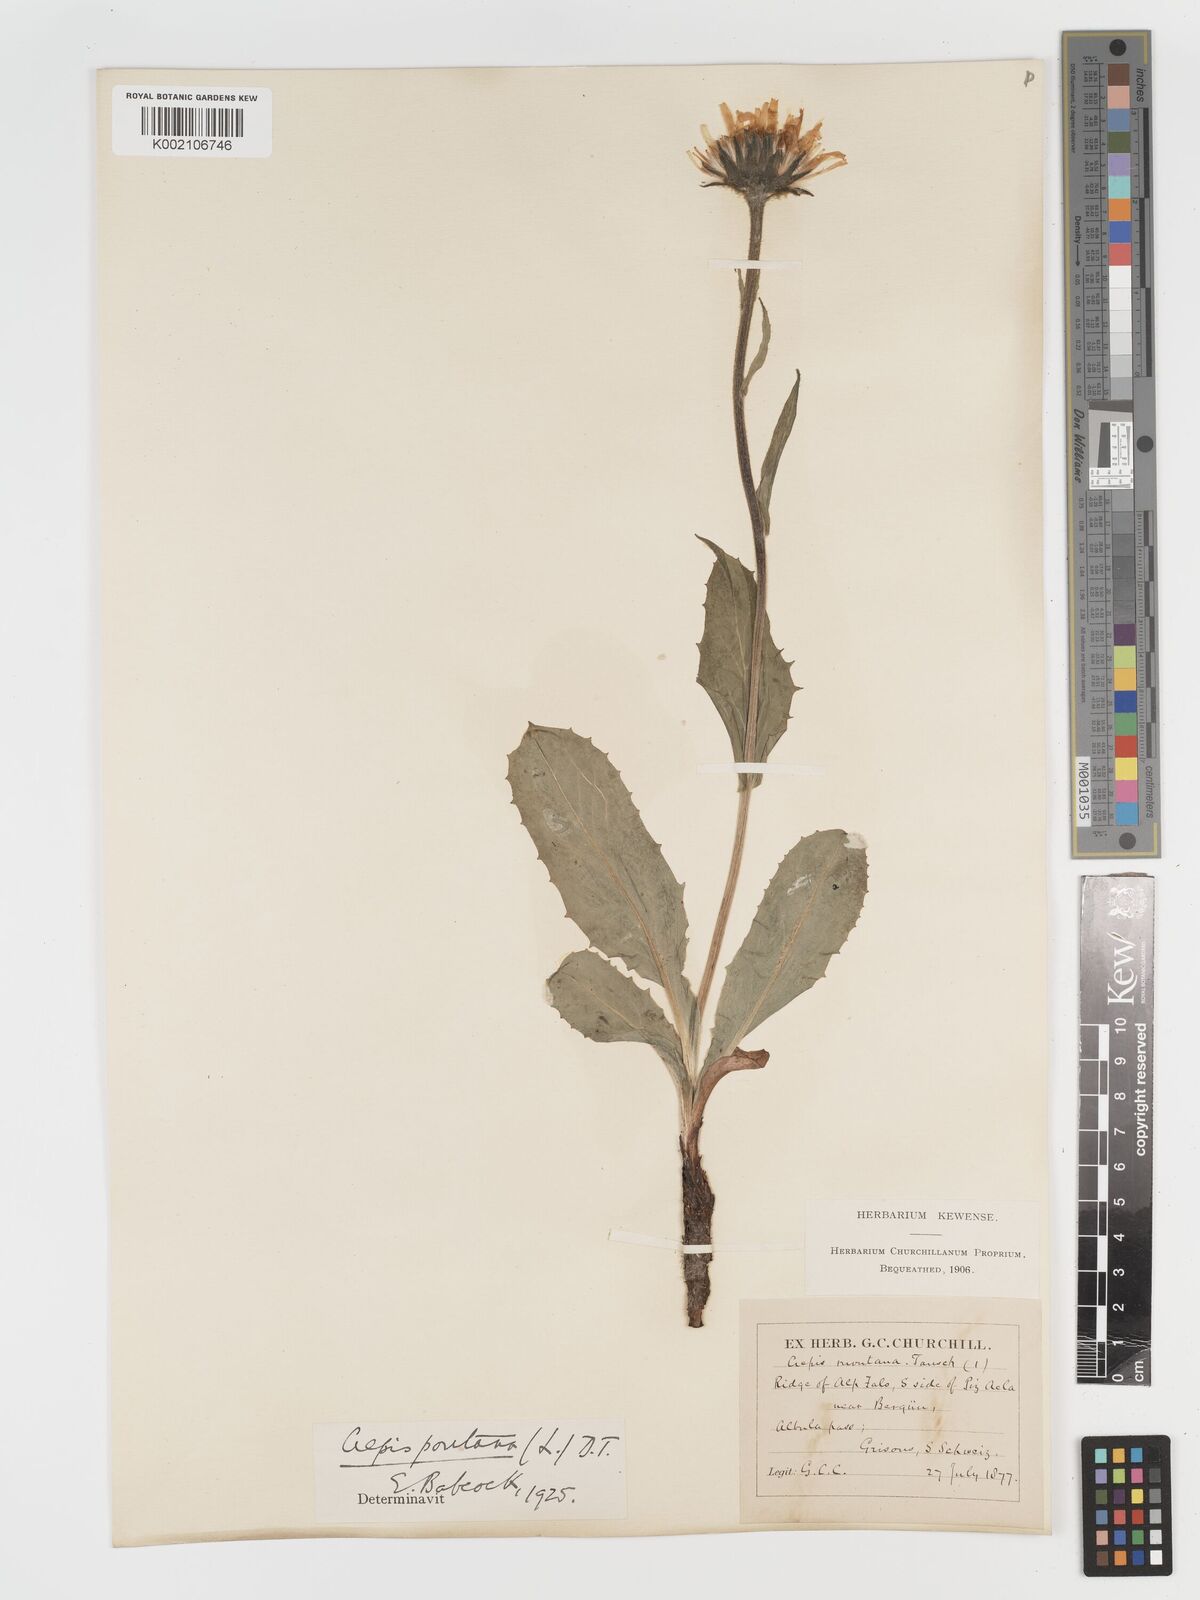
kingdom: Plantae
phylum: Tracheophyta
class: Magnoliopsida
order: Asterales
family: Asteraceae
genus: Crepis
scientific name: Crepis pontana
